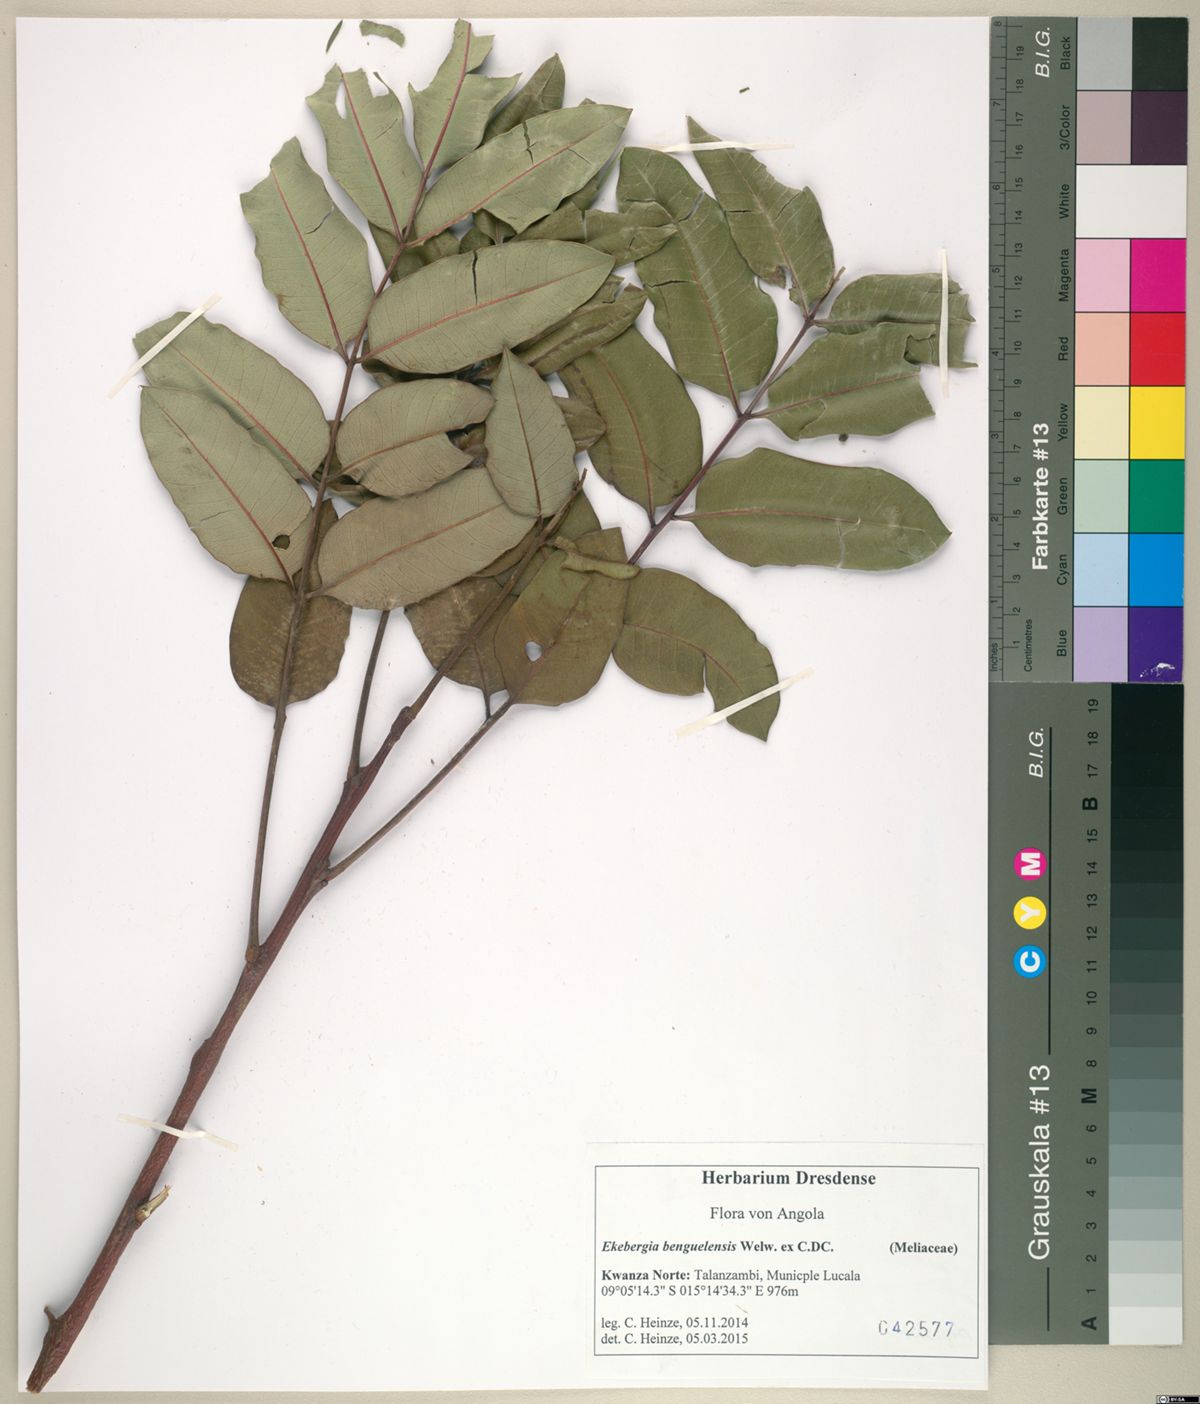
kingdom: Plantae
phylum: Tracheophyta
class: Magnoliopsida
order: Sapindales
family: Meliaceae
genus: Ekebergia
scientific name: Ekebergia benguelensis
